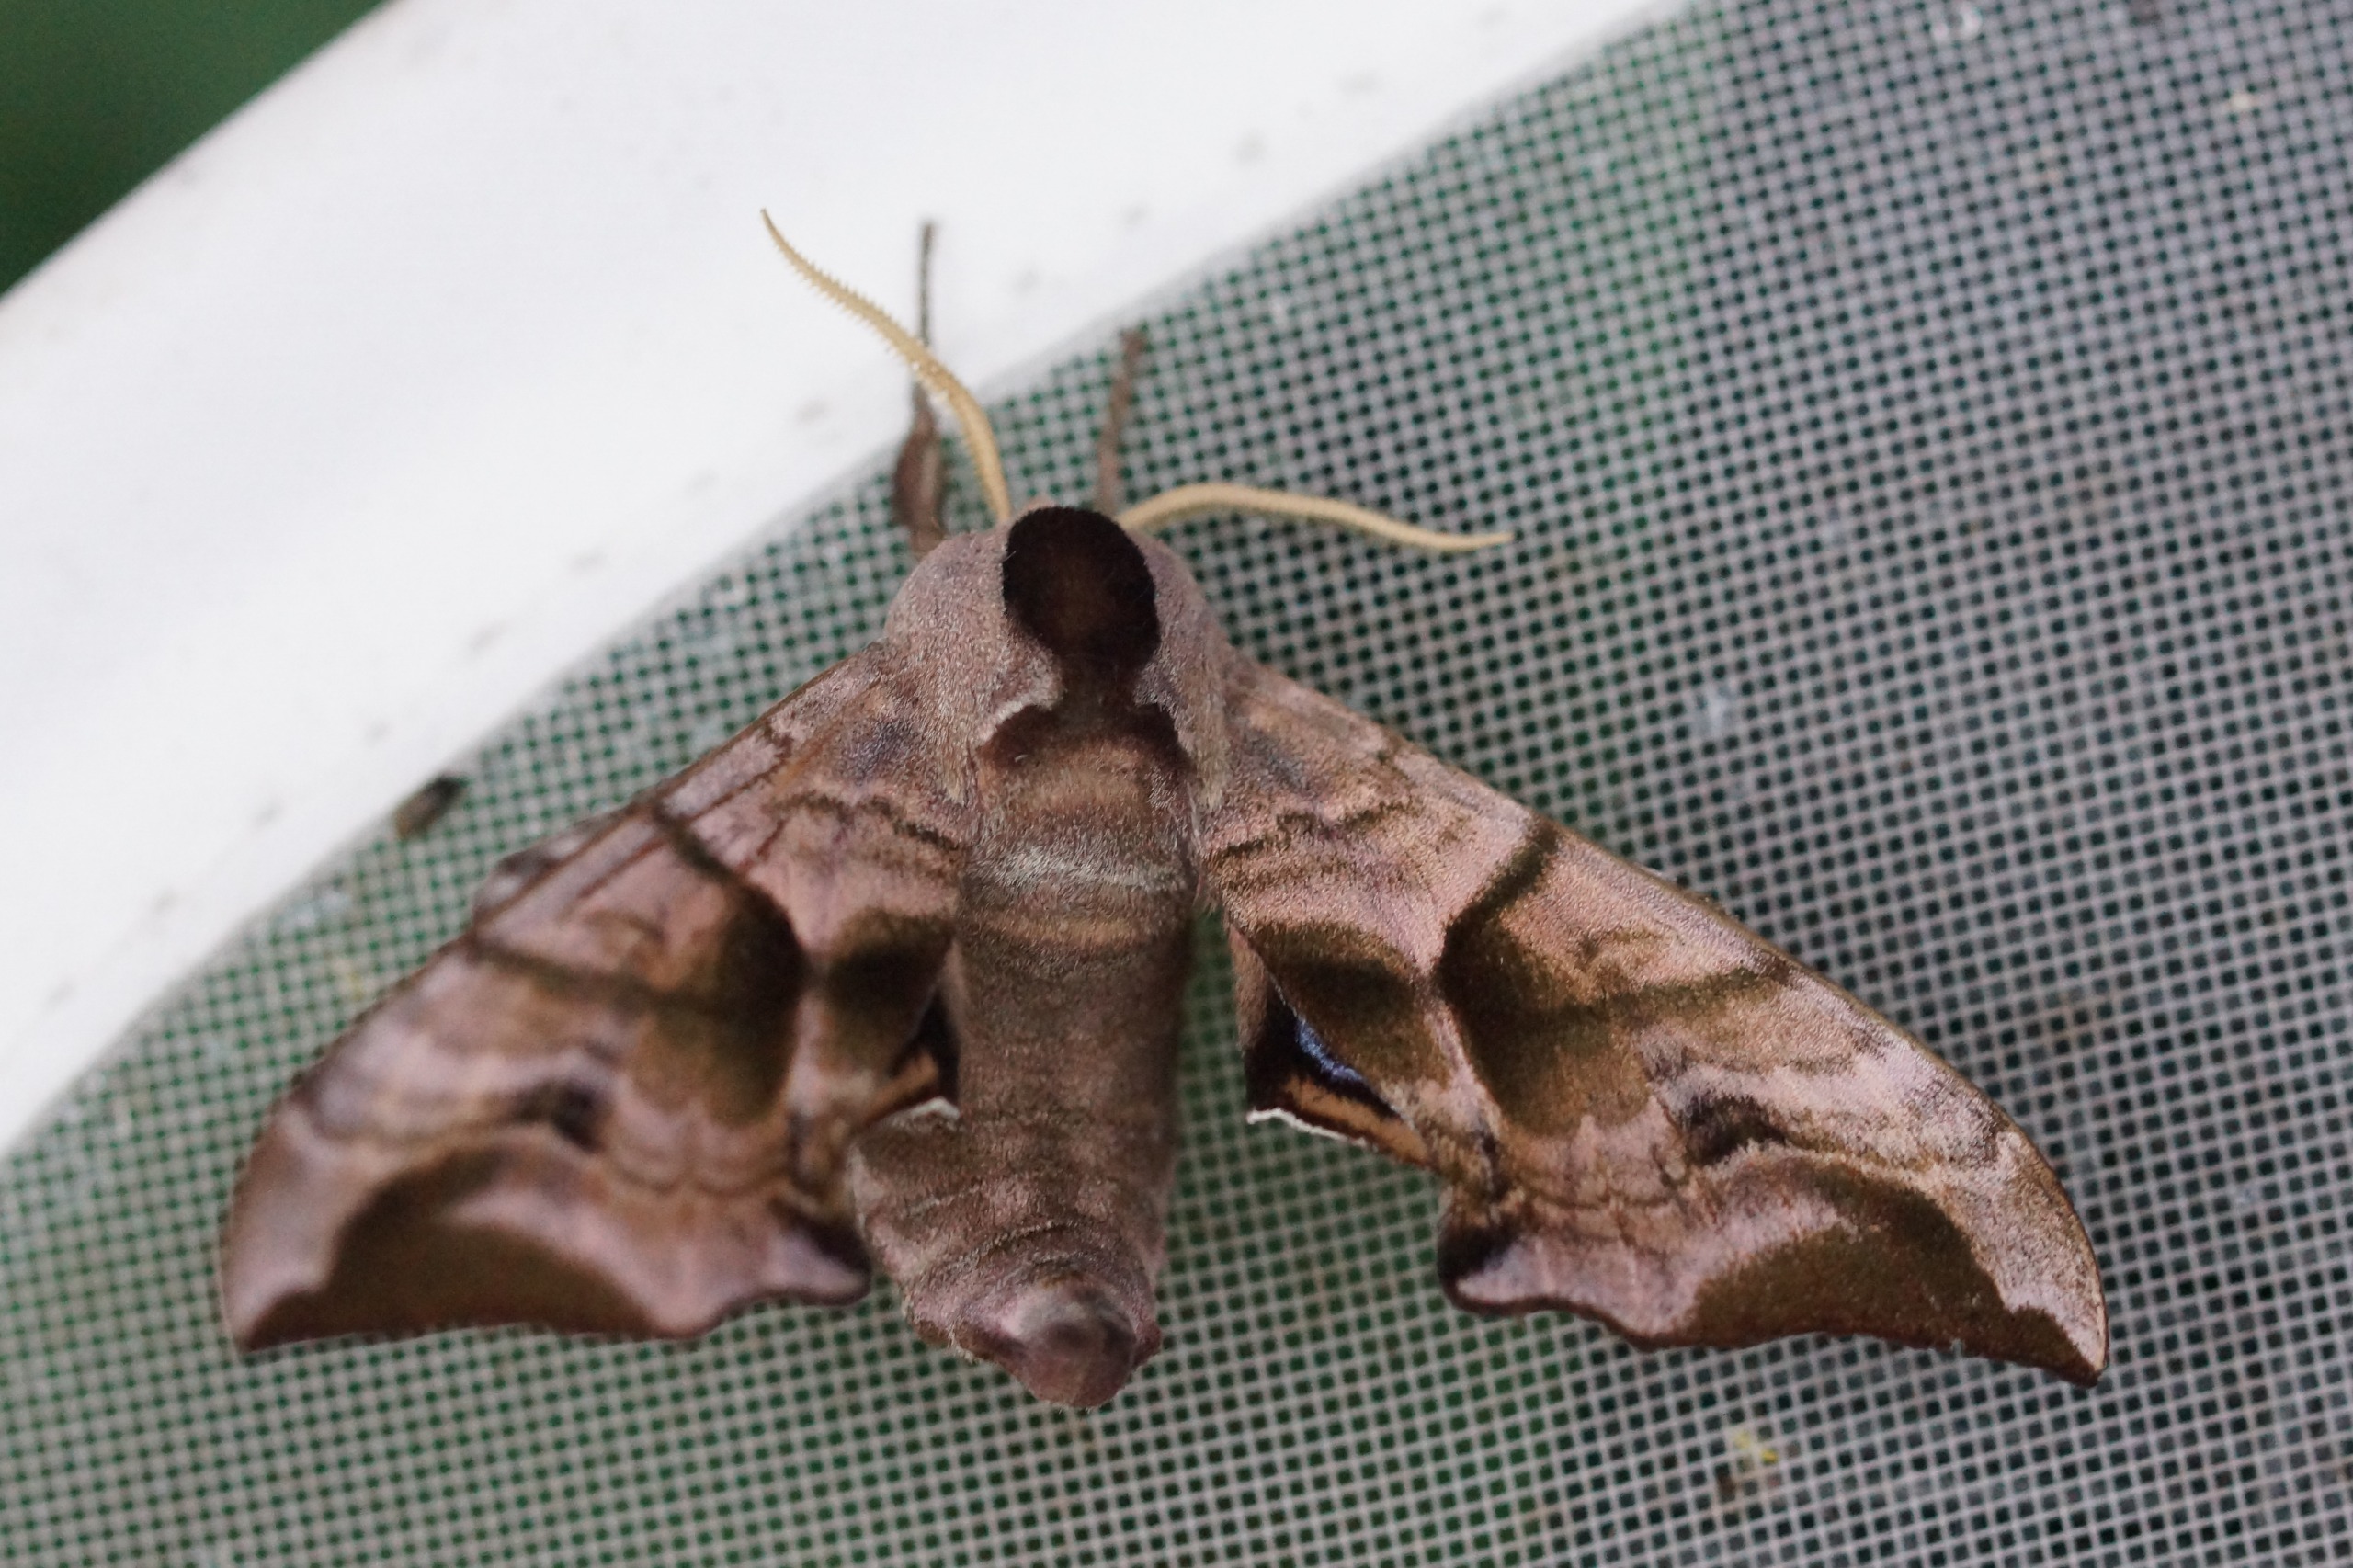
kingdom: Animalia
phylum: Arthropoda
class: Insecta
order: Lepidoptera
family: Sphingidae
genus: Smerinthus
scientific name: Smerinthus ocellata
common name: Aftenpåfugleøje
